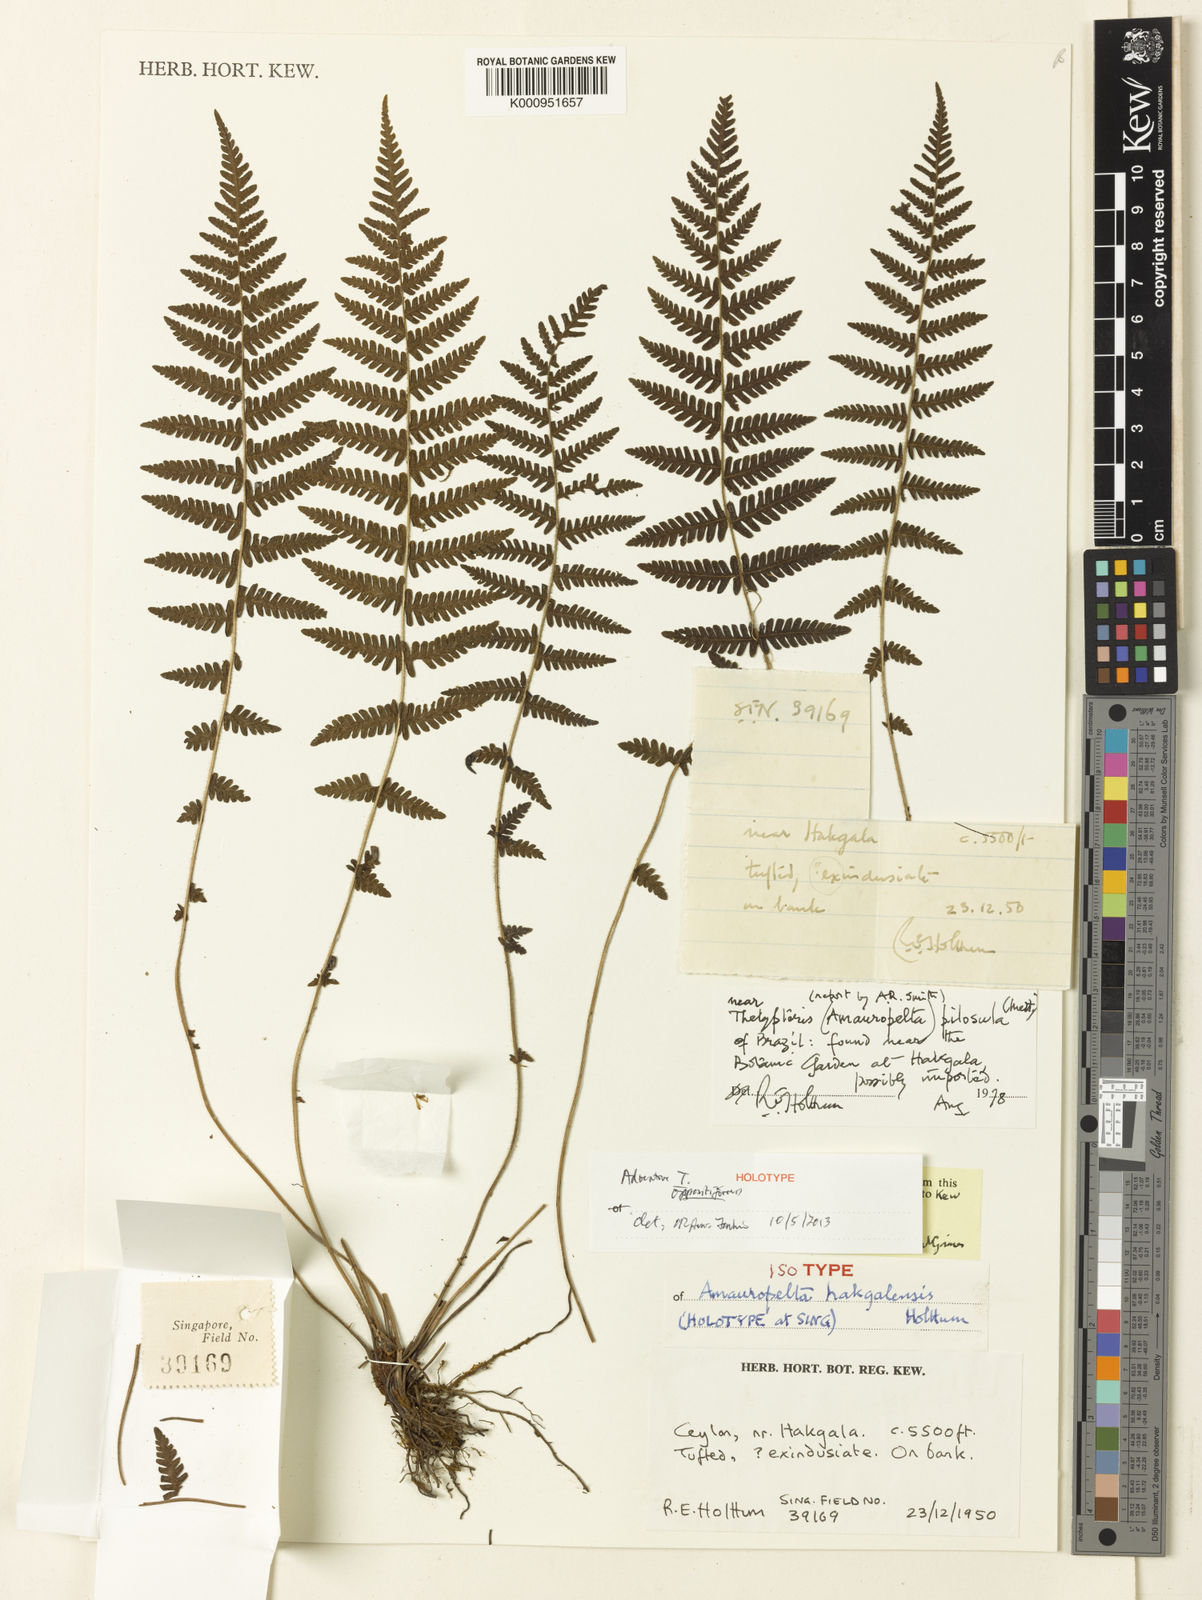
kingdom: Plantae
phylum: Tracheophyta
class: Polypodiopsida
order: Polypodiales
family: Thelypteridaceae
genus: Amauropelta
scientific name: Amauropelta hakgalensis
